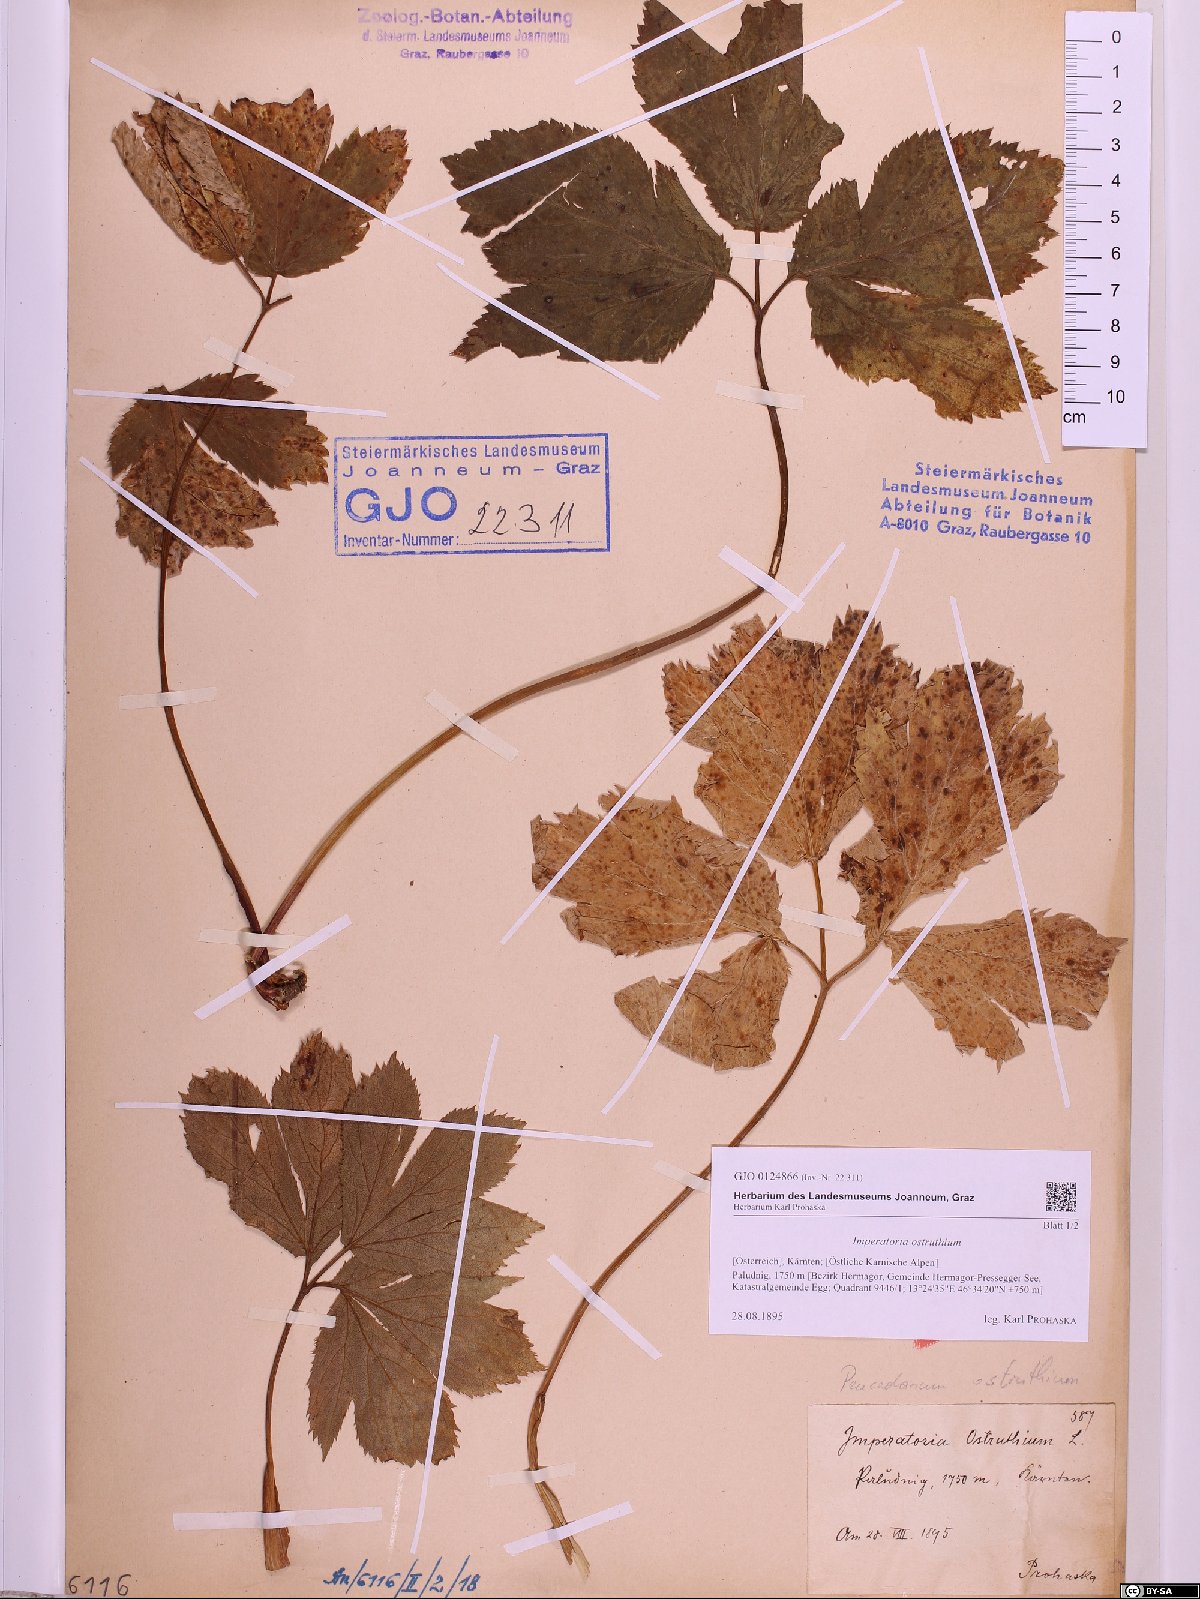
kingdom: Plantae
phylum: Tracheophyta
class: Magnoliopsida
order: Apiales
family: Apiaceae
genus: Imperatoria
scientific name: Imperatoria ostruthium
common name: Masterwort
